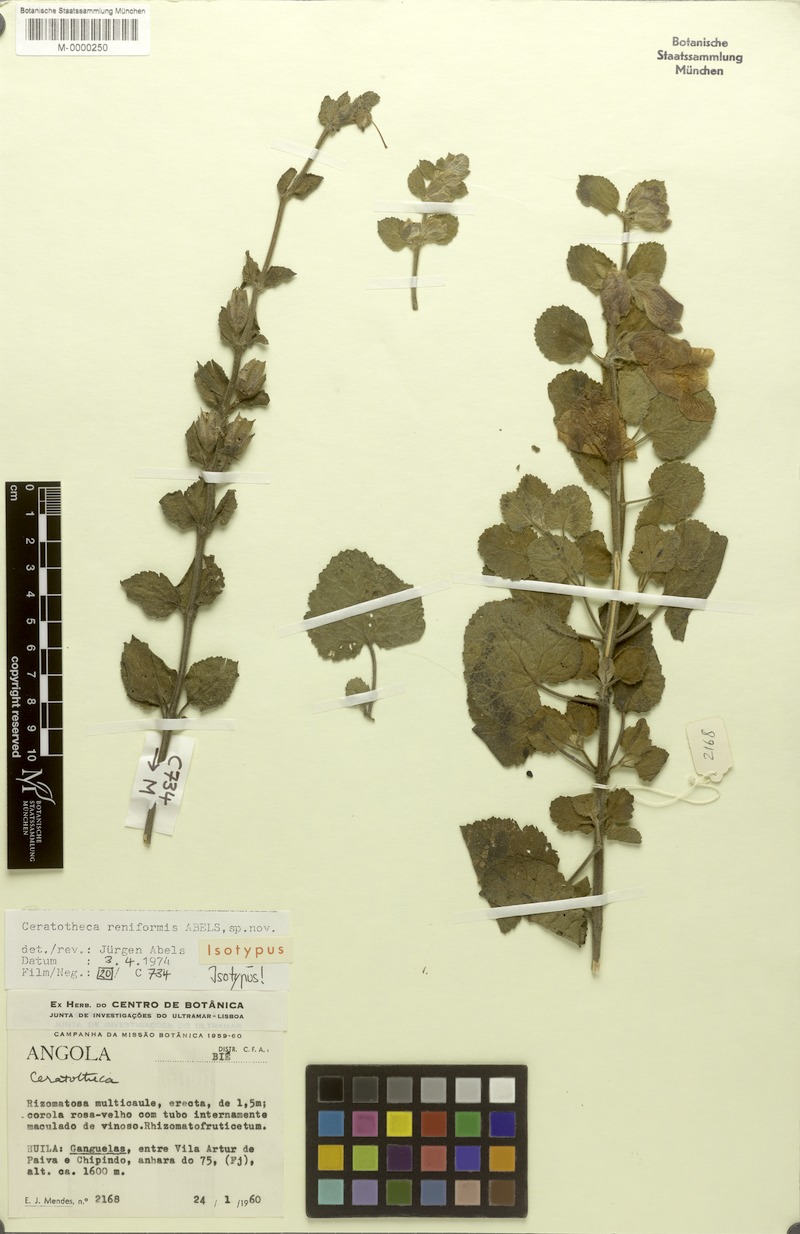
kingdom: Plantae
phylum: Tracheophyta
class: Magnoliopsida
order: Lamiales
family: Pedaliaceae
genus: Sesamum
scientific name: Sesamum reniforme
